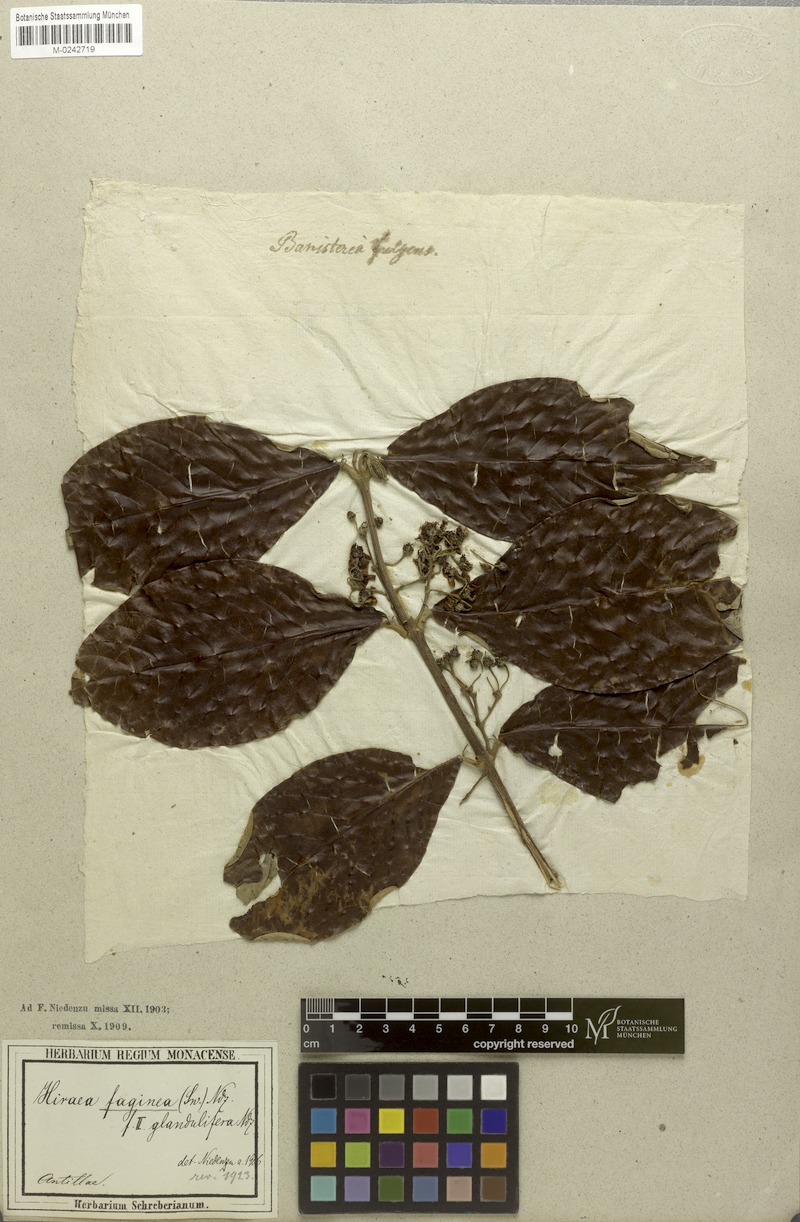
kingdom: Plantae
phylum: Tracheophyta
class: Magnoliopsida
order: Malpighiales
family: Malpighiaceae
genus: Hiraea
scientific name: Hiraea faginea
